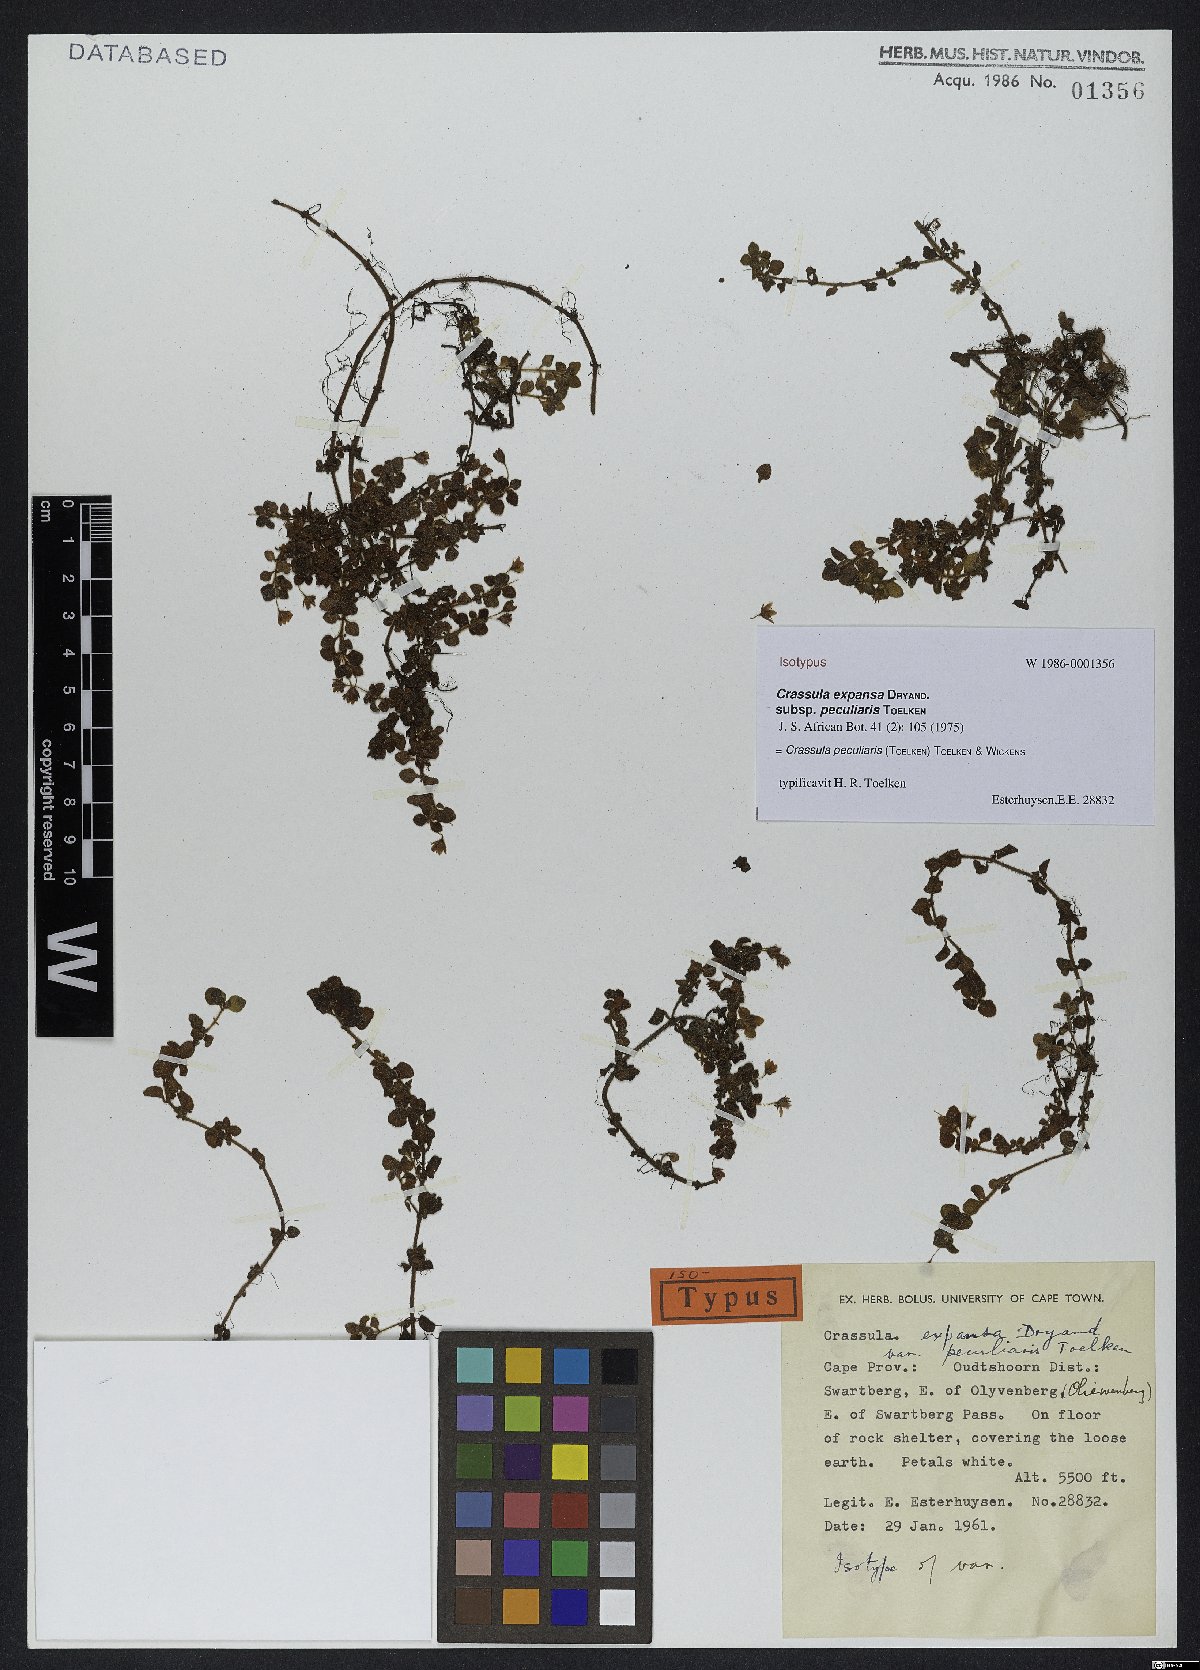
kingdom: Plantae
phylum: Tracheophyta
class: Magnoliopsida
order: Saxifragales
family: Crassulaceae
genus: Crassula
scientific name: Crassula peculiaris
